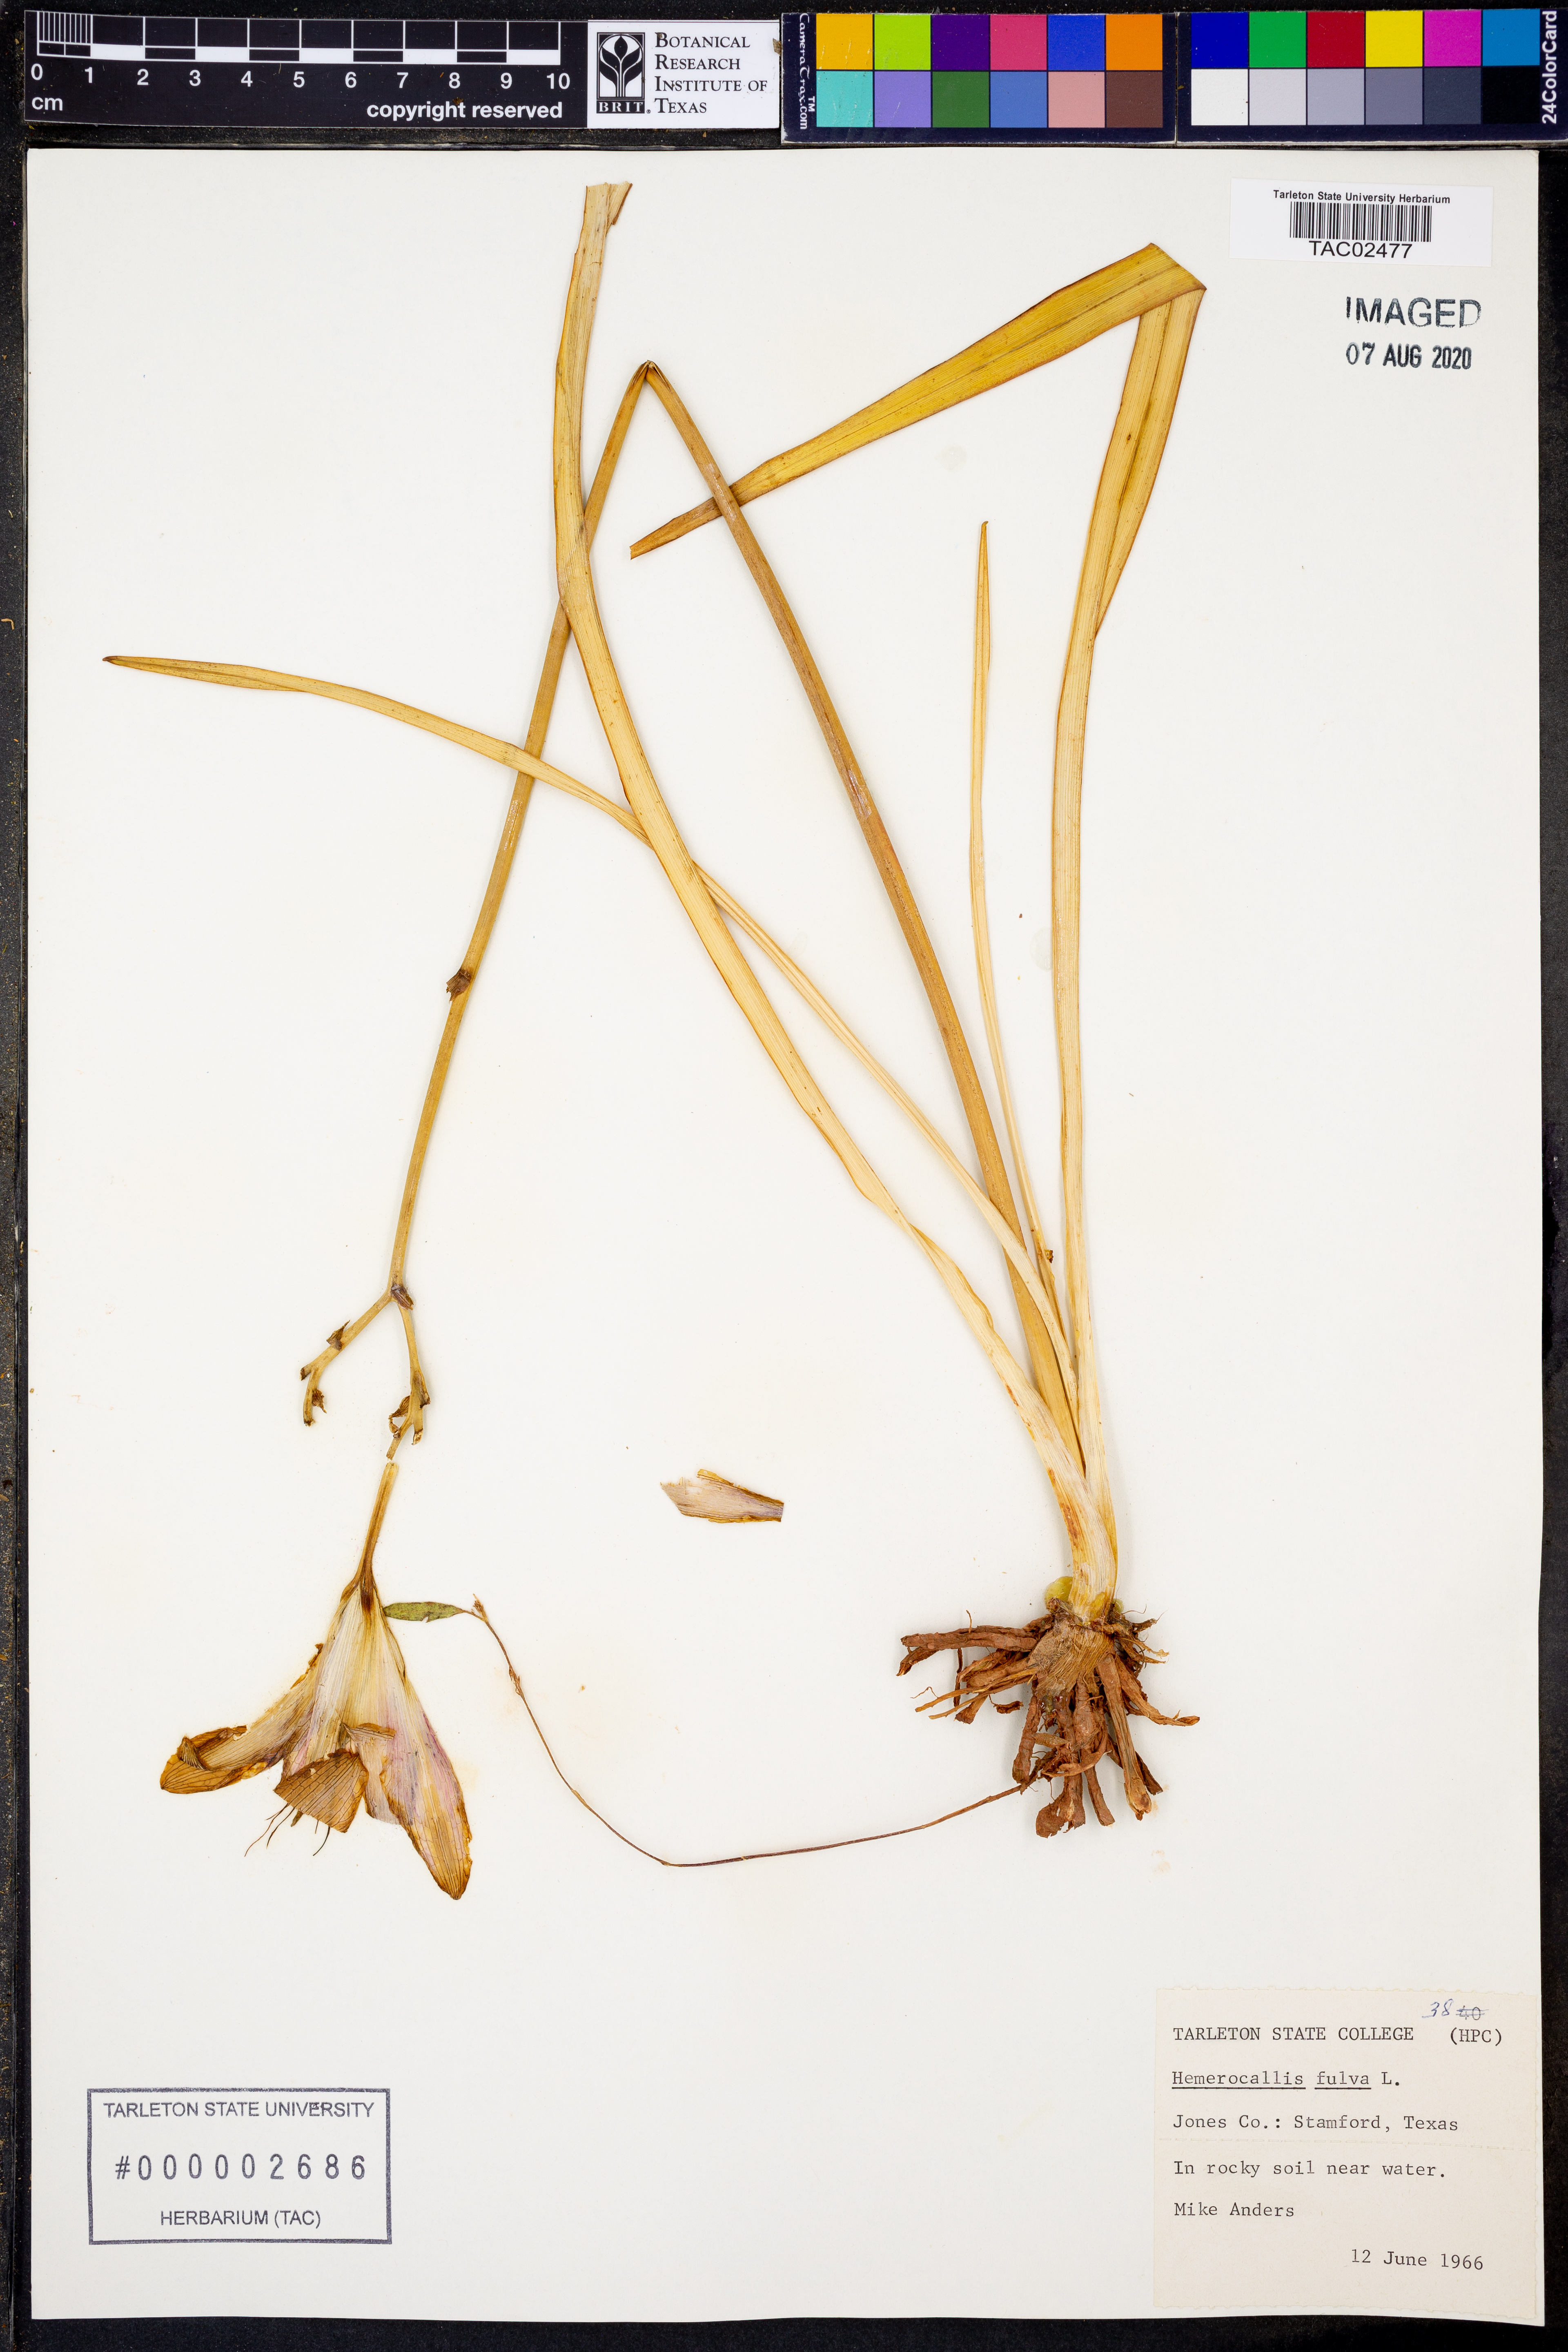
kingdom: Plantae
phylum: Tracheophyta
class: Liliopsida
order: Asparagales
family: Asphodelaceae
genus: Hemerocallis
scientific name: Hemerocallis fulva
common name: Orange day-lily
